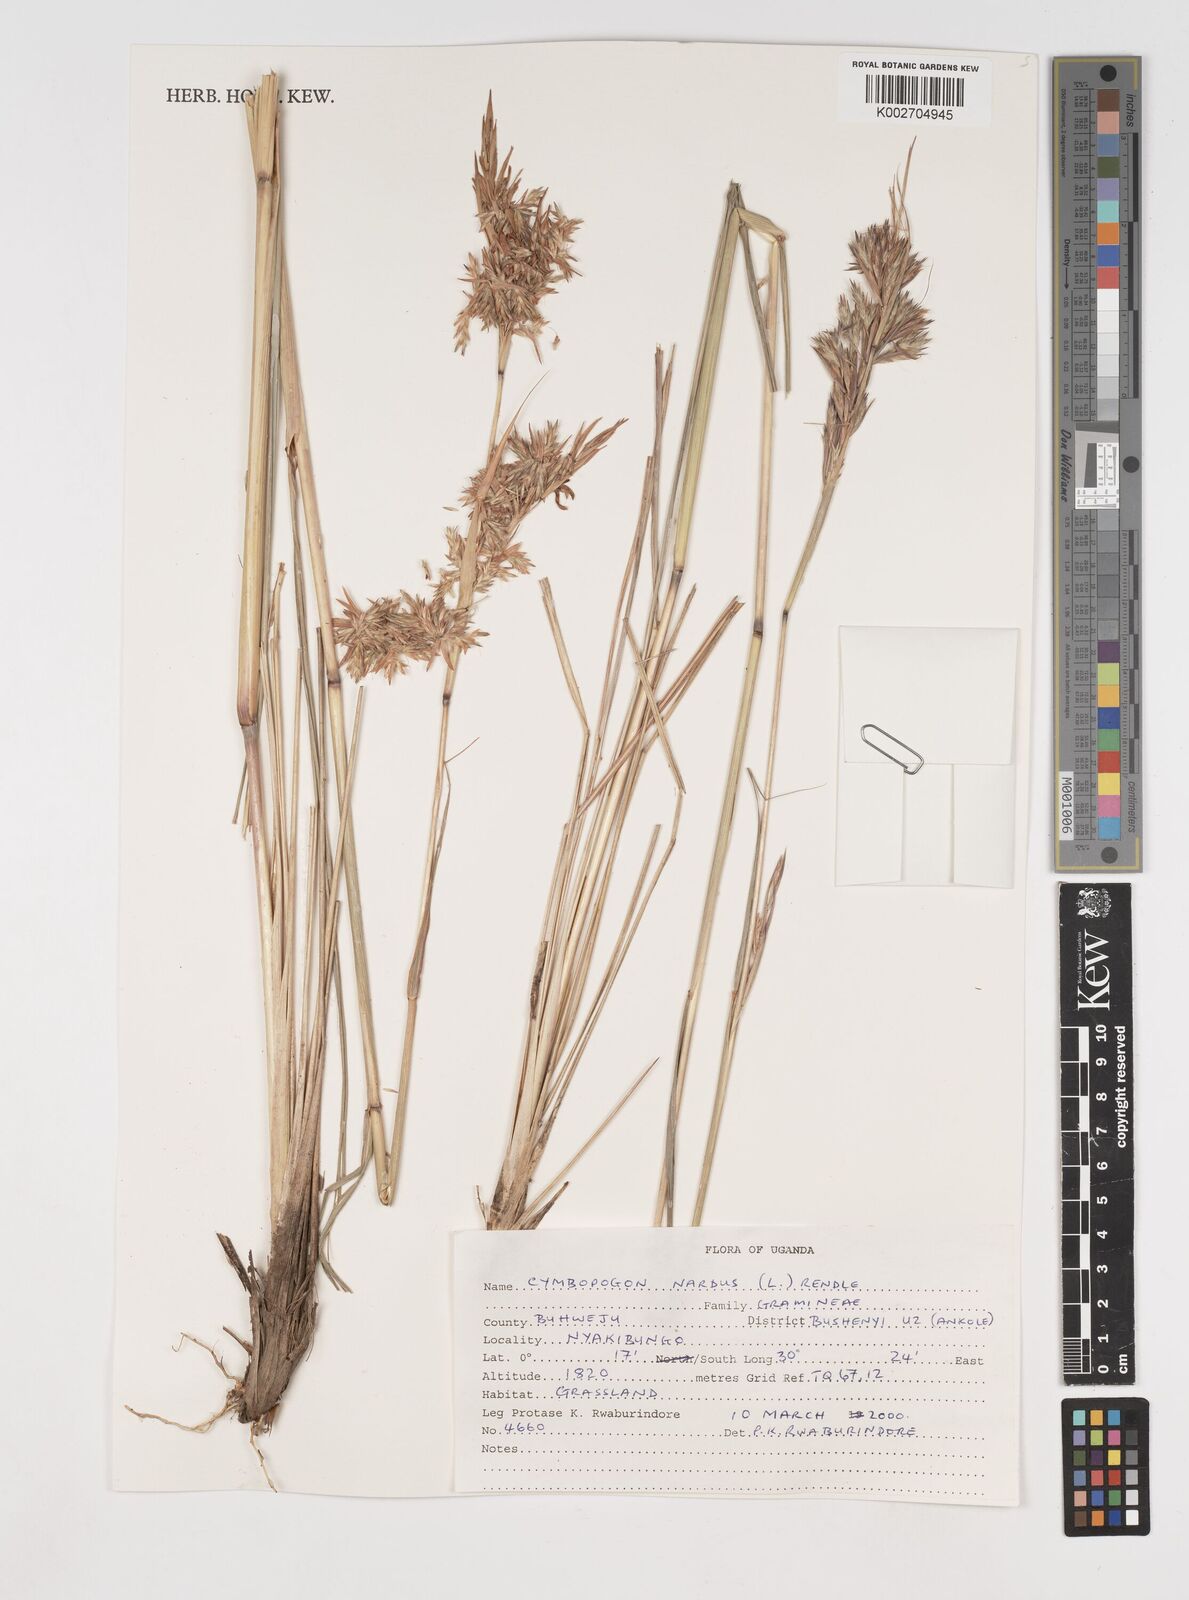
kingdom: Plantae
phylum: Tracheophyta
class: Liliopsida
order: Poales
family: Poaceae
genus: Cymbopogon
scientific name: Cymbopogon nardus
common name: Giant turpentine grass
